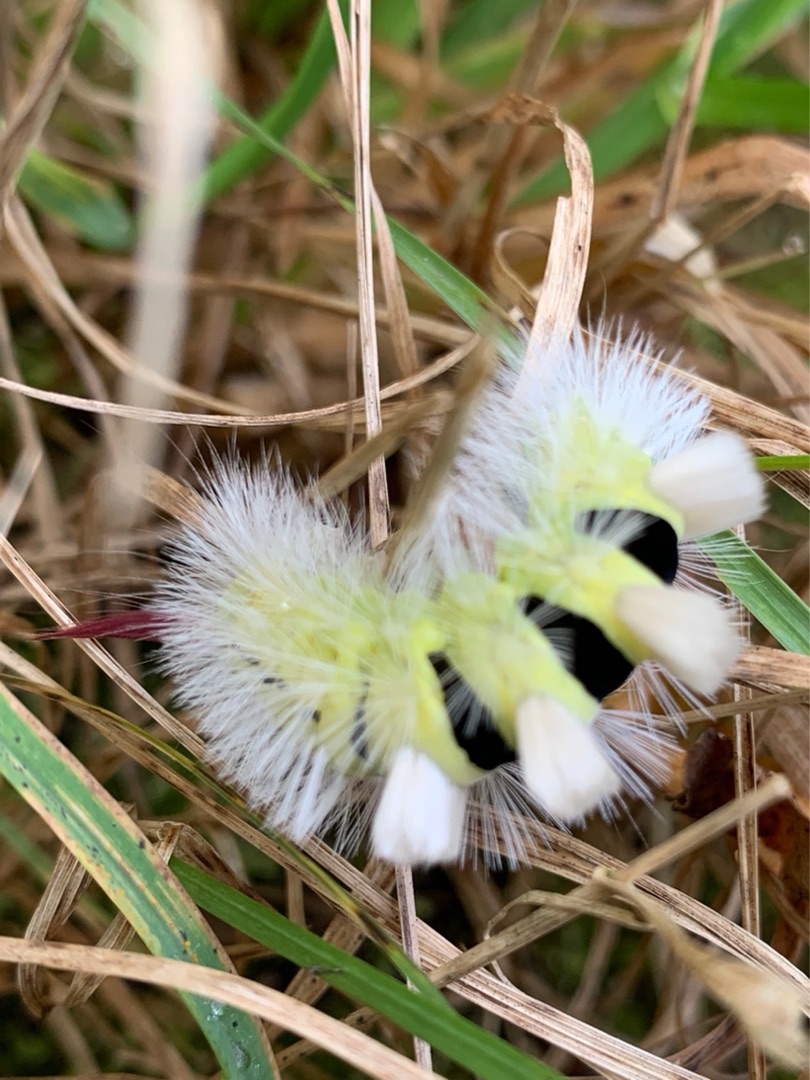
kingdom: Animalia
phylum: Arthropoda
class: Insecta
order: Lepidoptera
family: Erebidae
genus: Calliteara
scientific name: Calliteara pudibunda
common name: Bøgenonne
